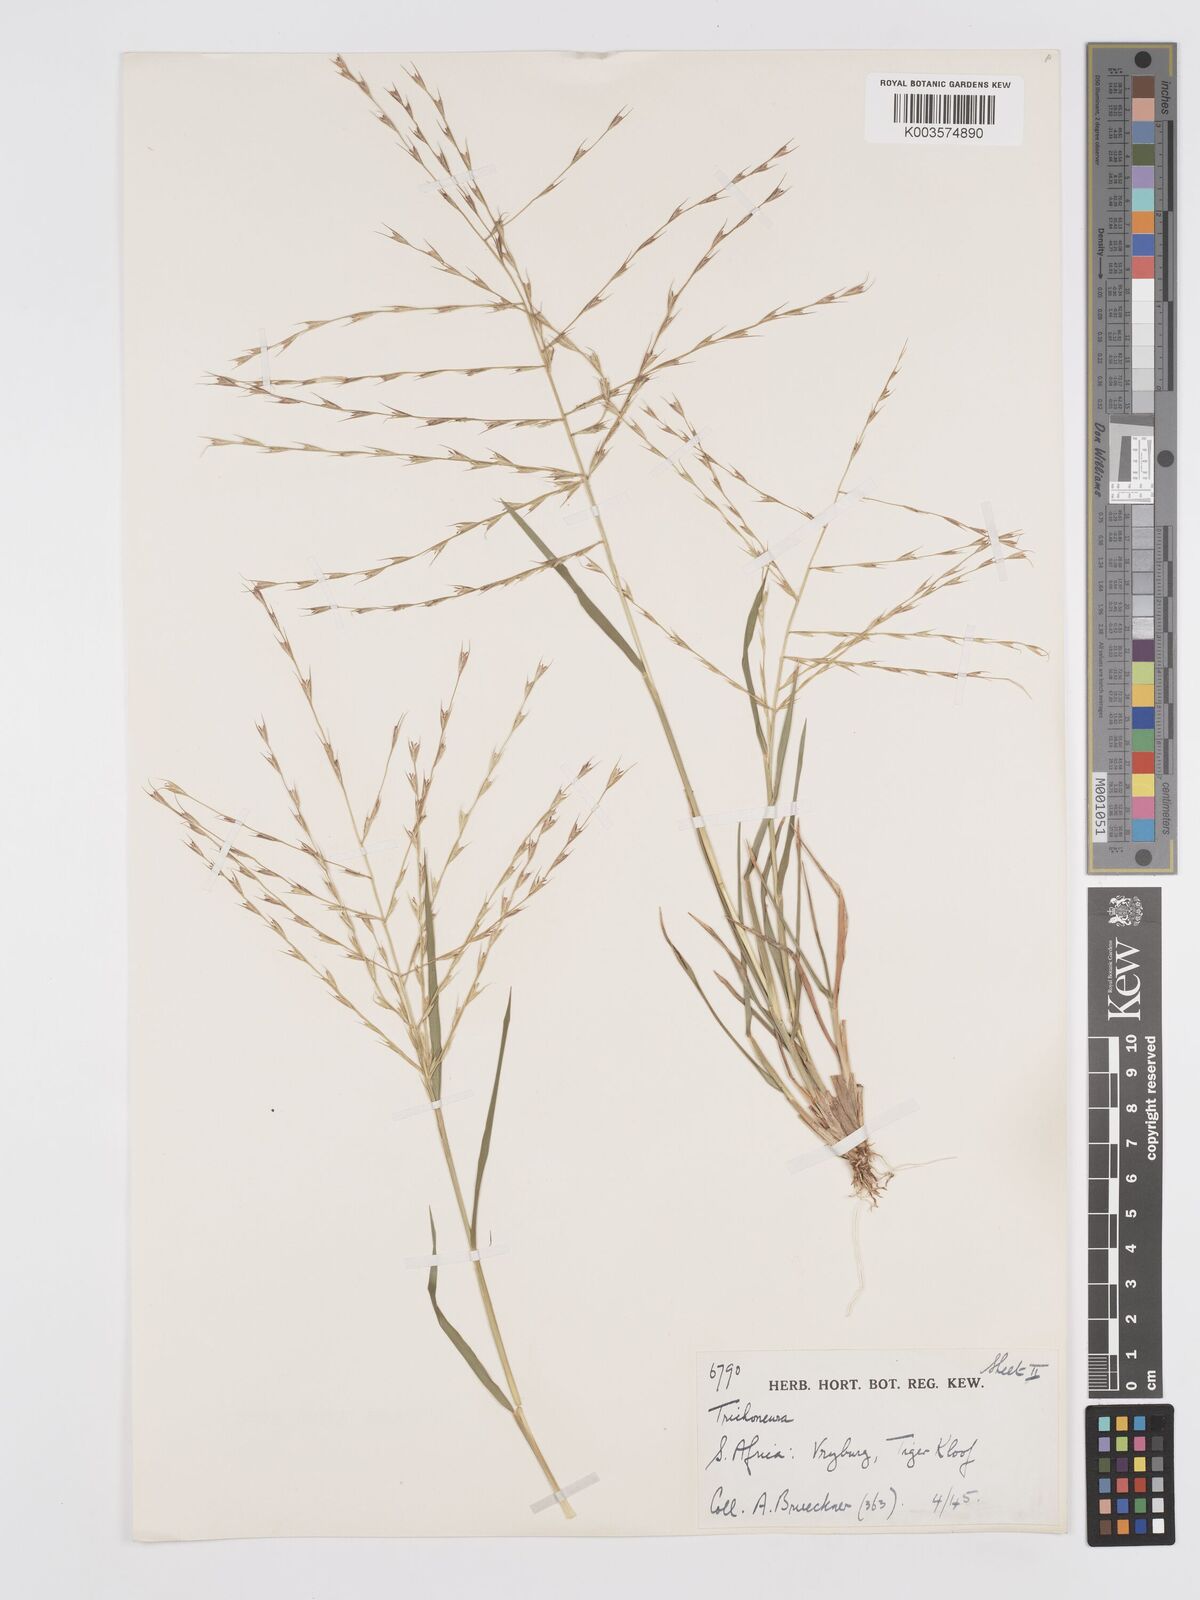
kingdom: Plantae
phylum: Tracheophyta
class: Liliopsida
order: Poales
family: Poaceae
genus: Trichoneura
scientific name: Trichoneura grandiglumis
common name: Rolling grass
